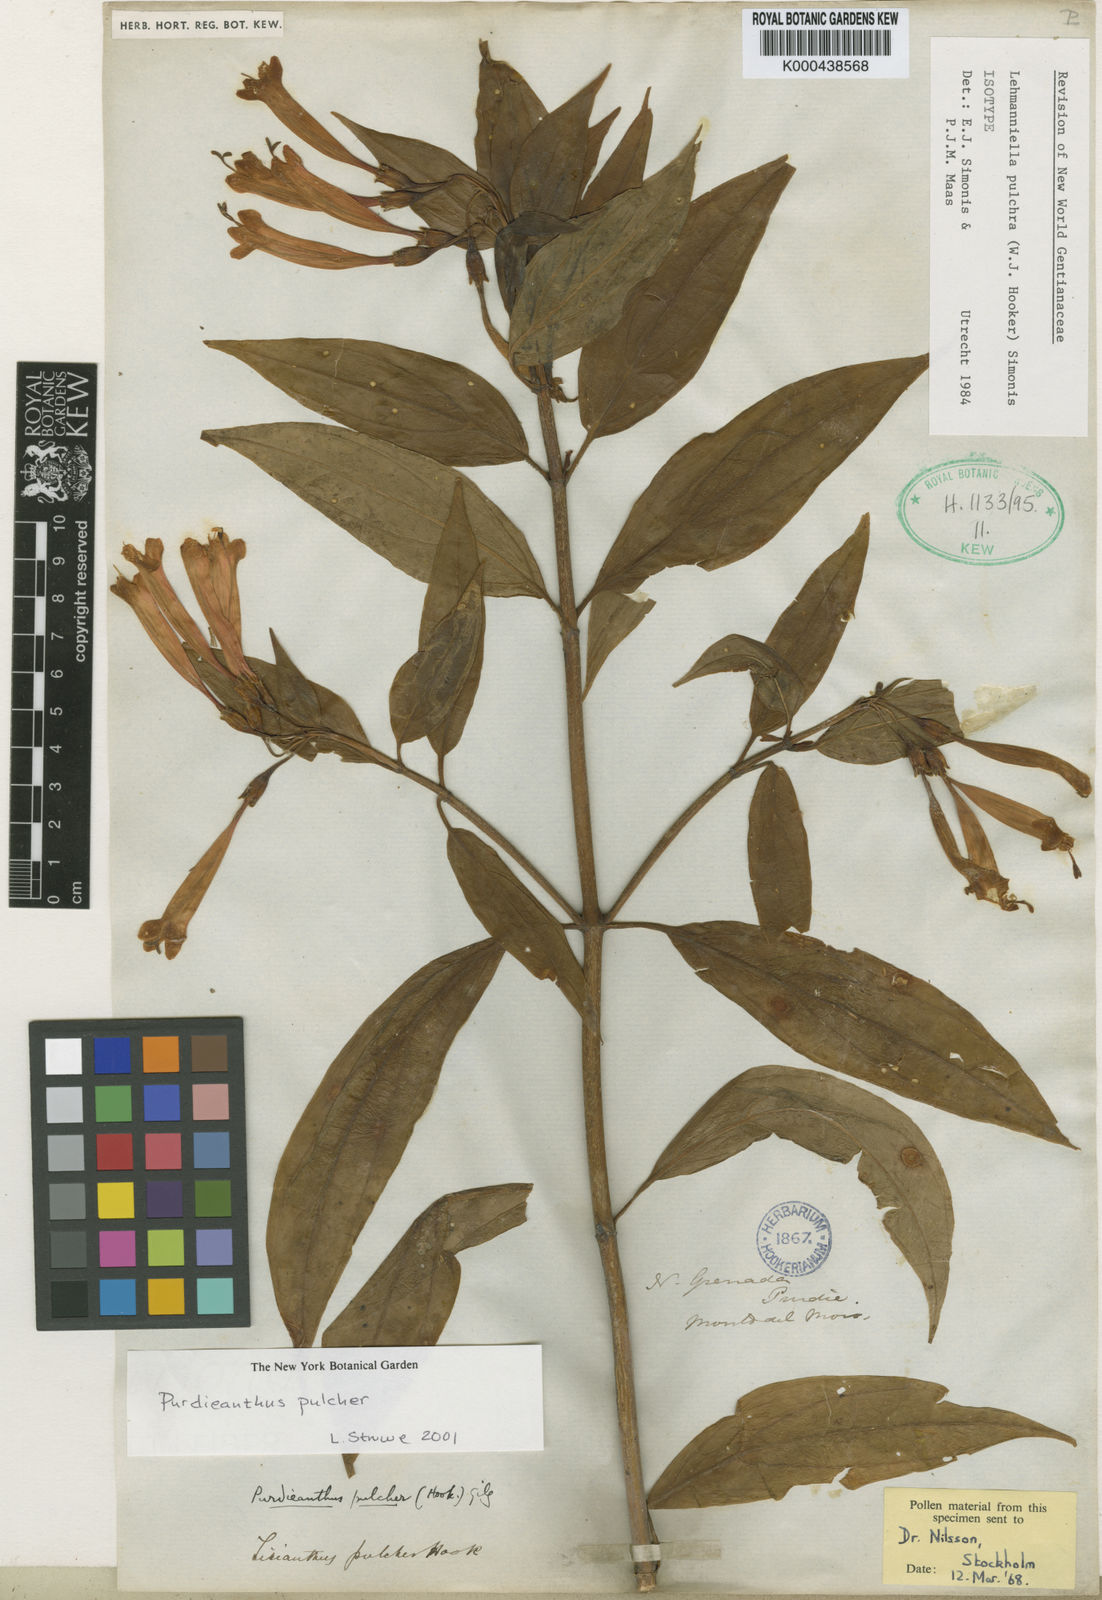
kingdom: Plantae
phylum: Tracheophyta
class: Magnoliopsida
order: Gentianales
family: Gentianaceae
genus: Lehmanniella
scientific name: Lehmanniella
